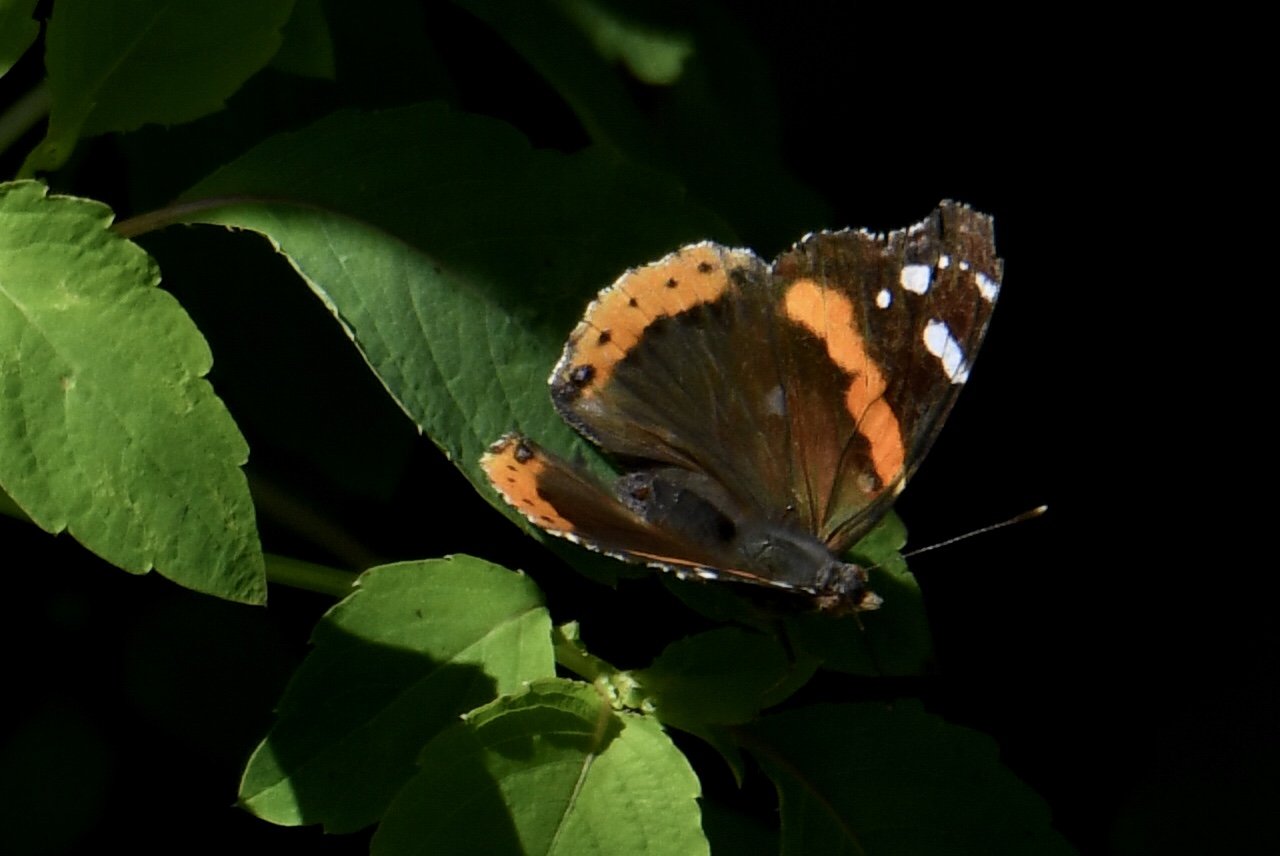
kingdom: Animalia
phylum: Arthropoda
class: Insecta
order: Lepidoptera
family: Nymphalidae
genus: Vanessa
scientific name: Vanessa atalanta
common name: Red Admiral
